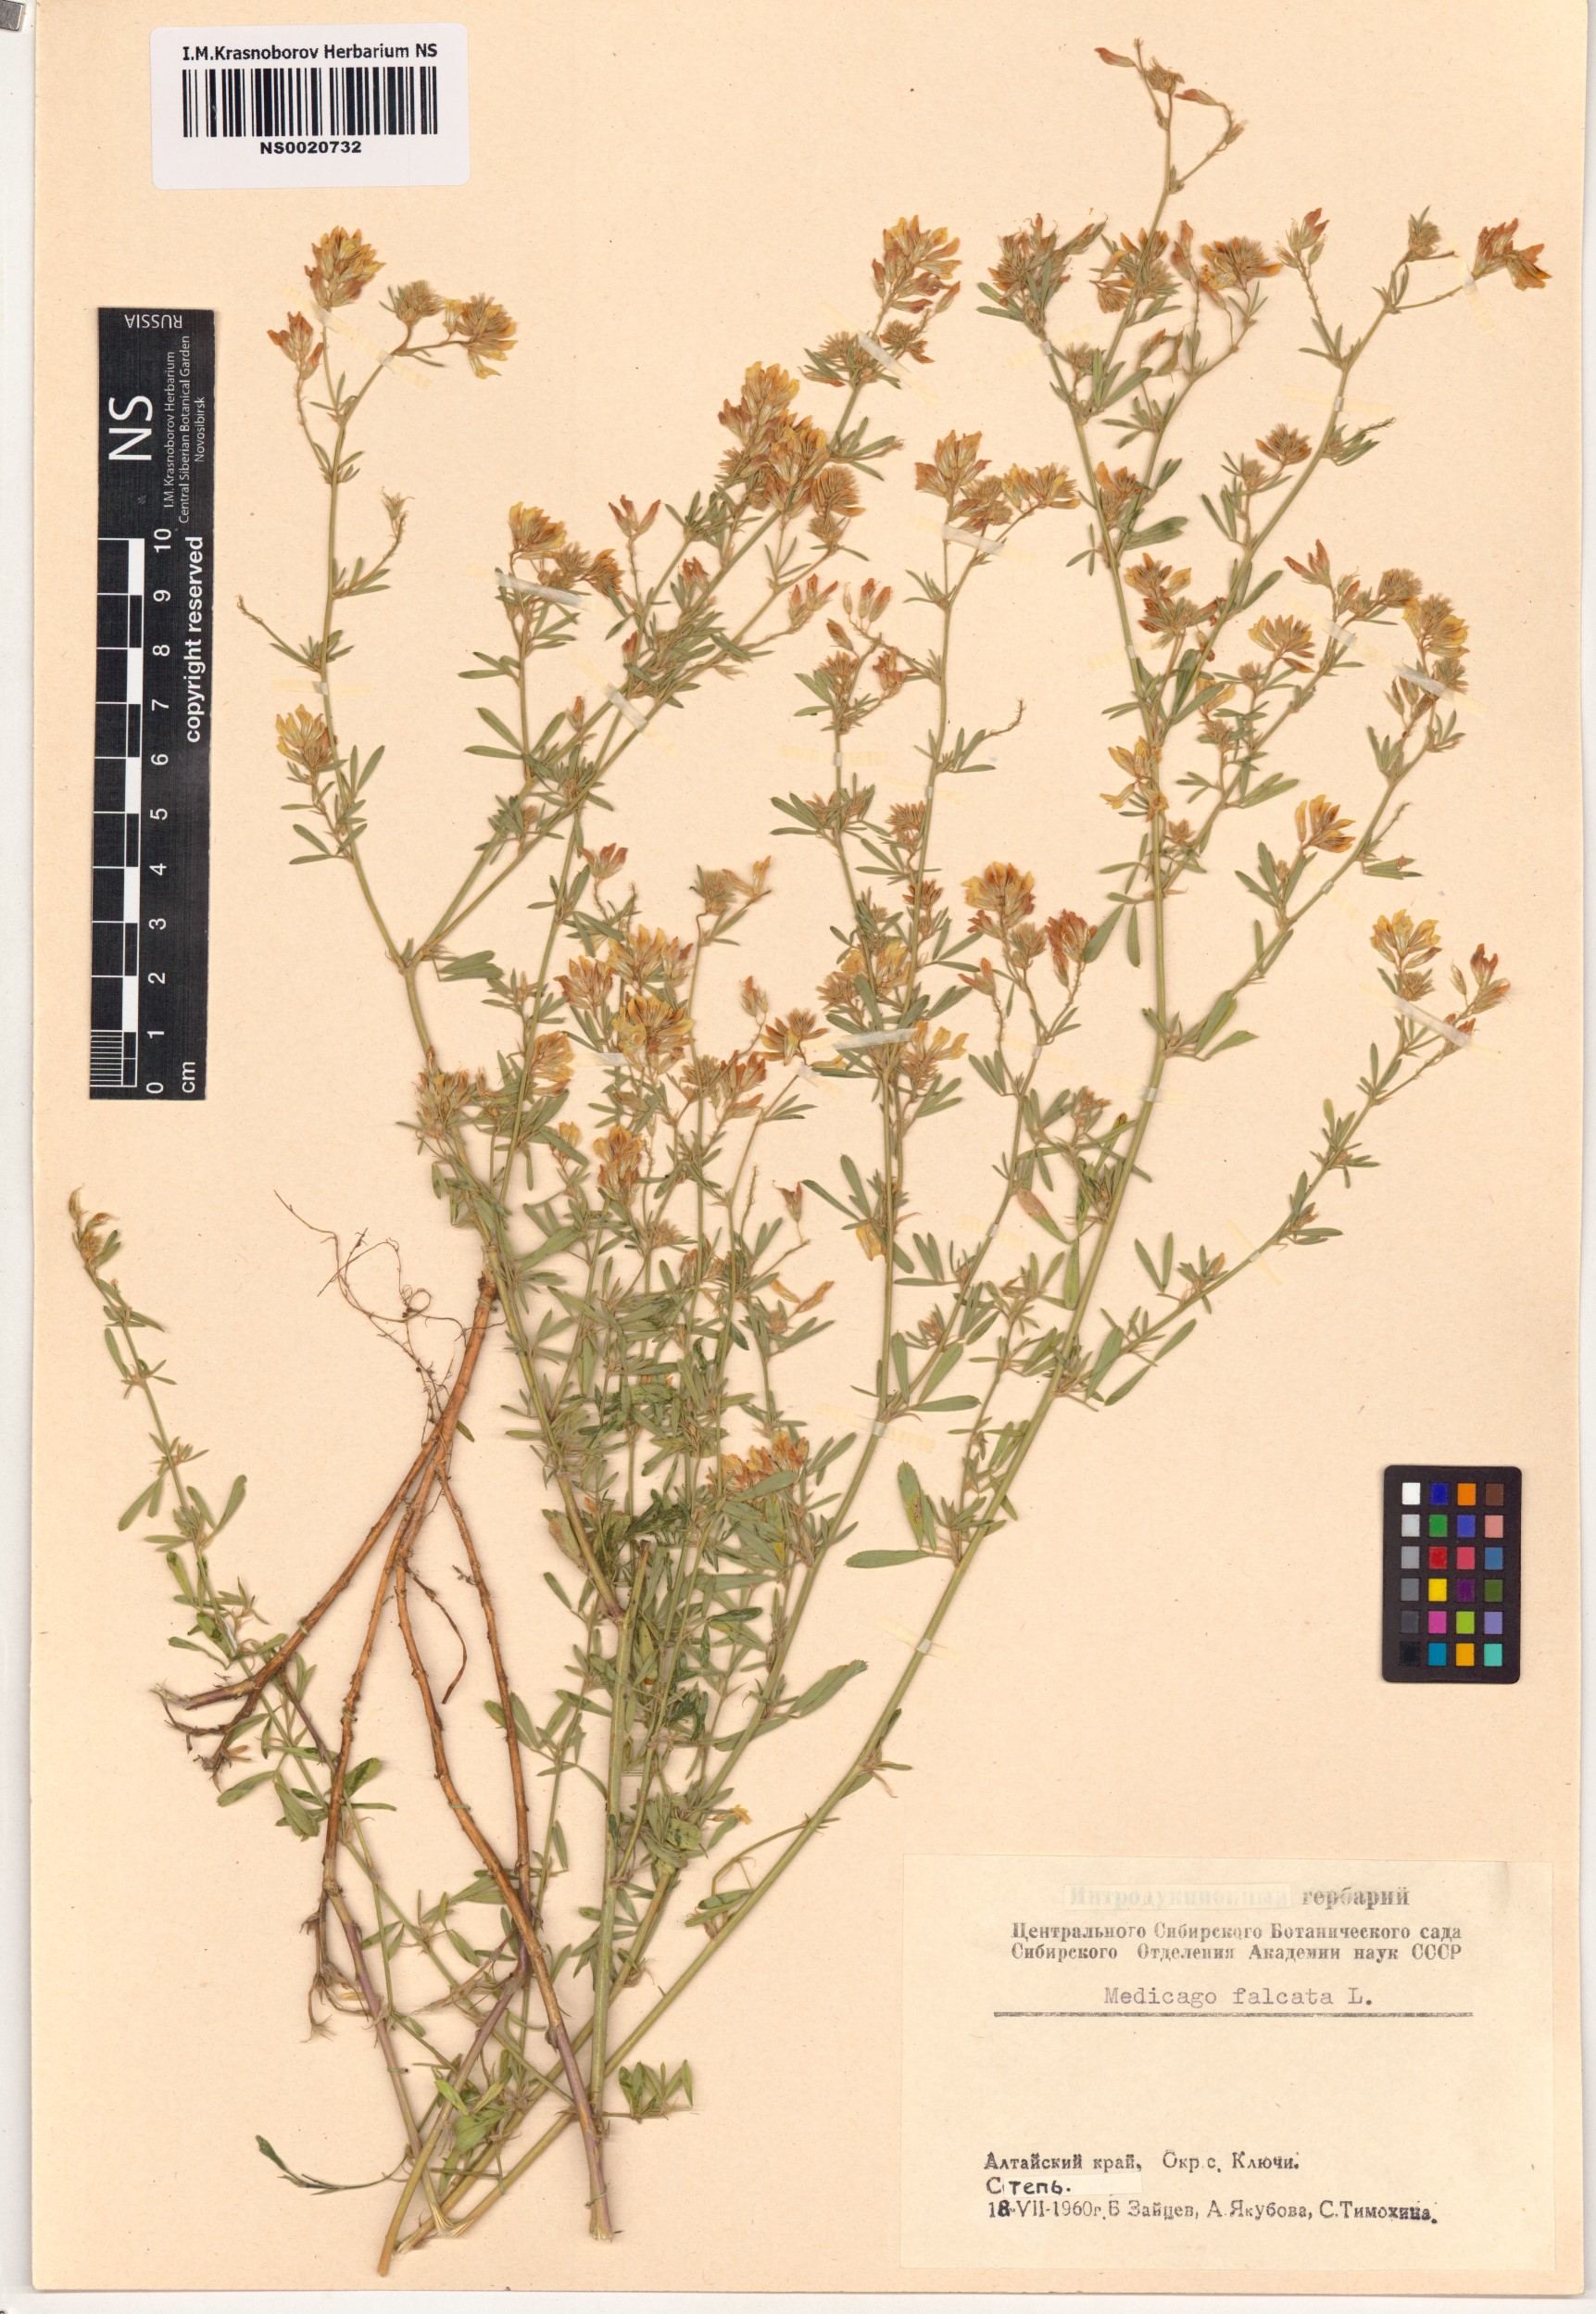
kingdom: Plantae
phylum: Tracheophyta
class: Magnoliopsida
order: Fabales
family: Fabaceae
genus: Medicago
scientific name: Medicago falcata
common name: Sickle medick
